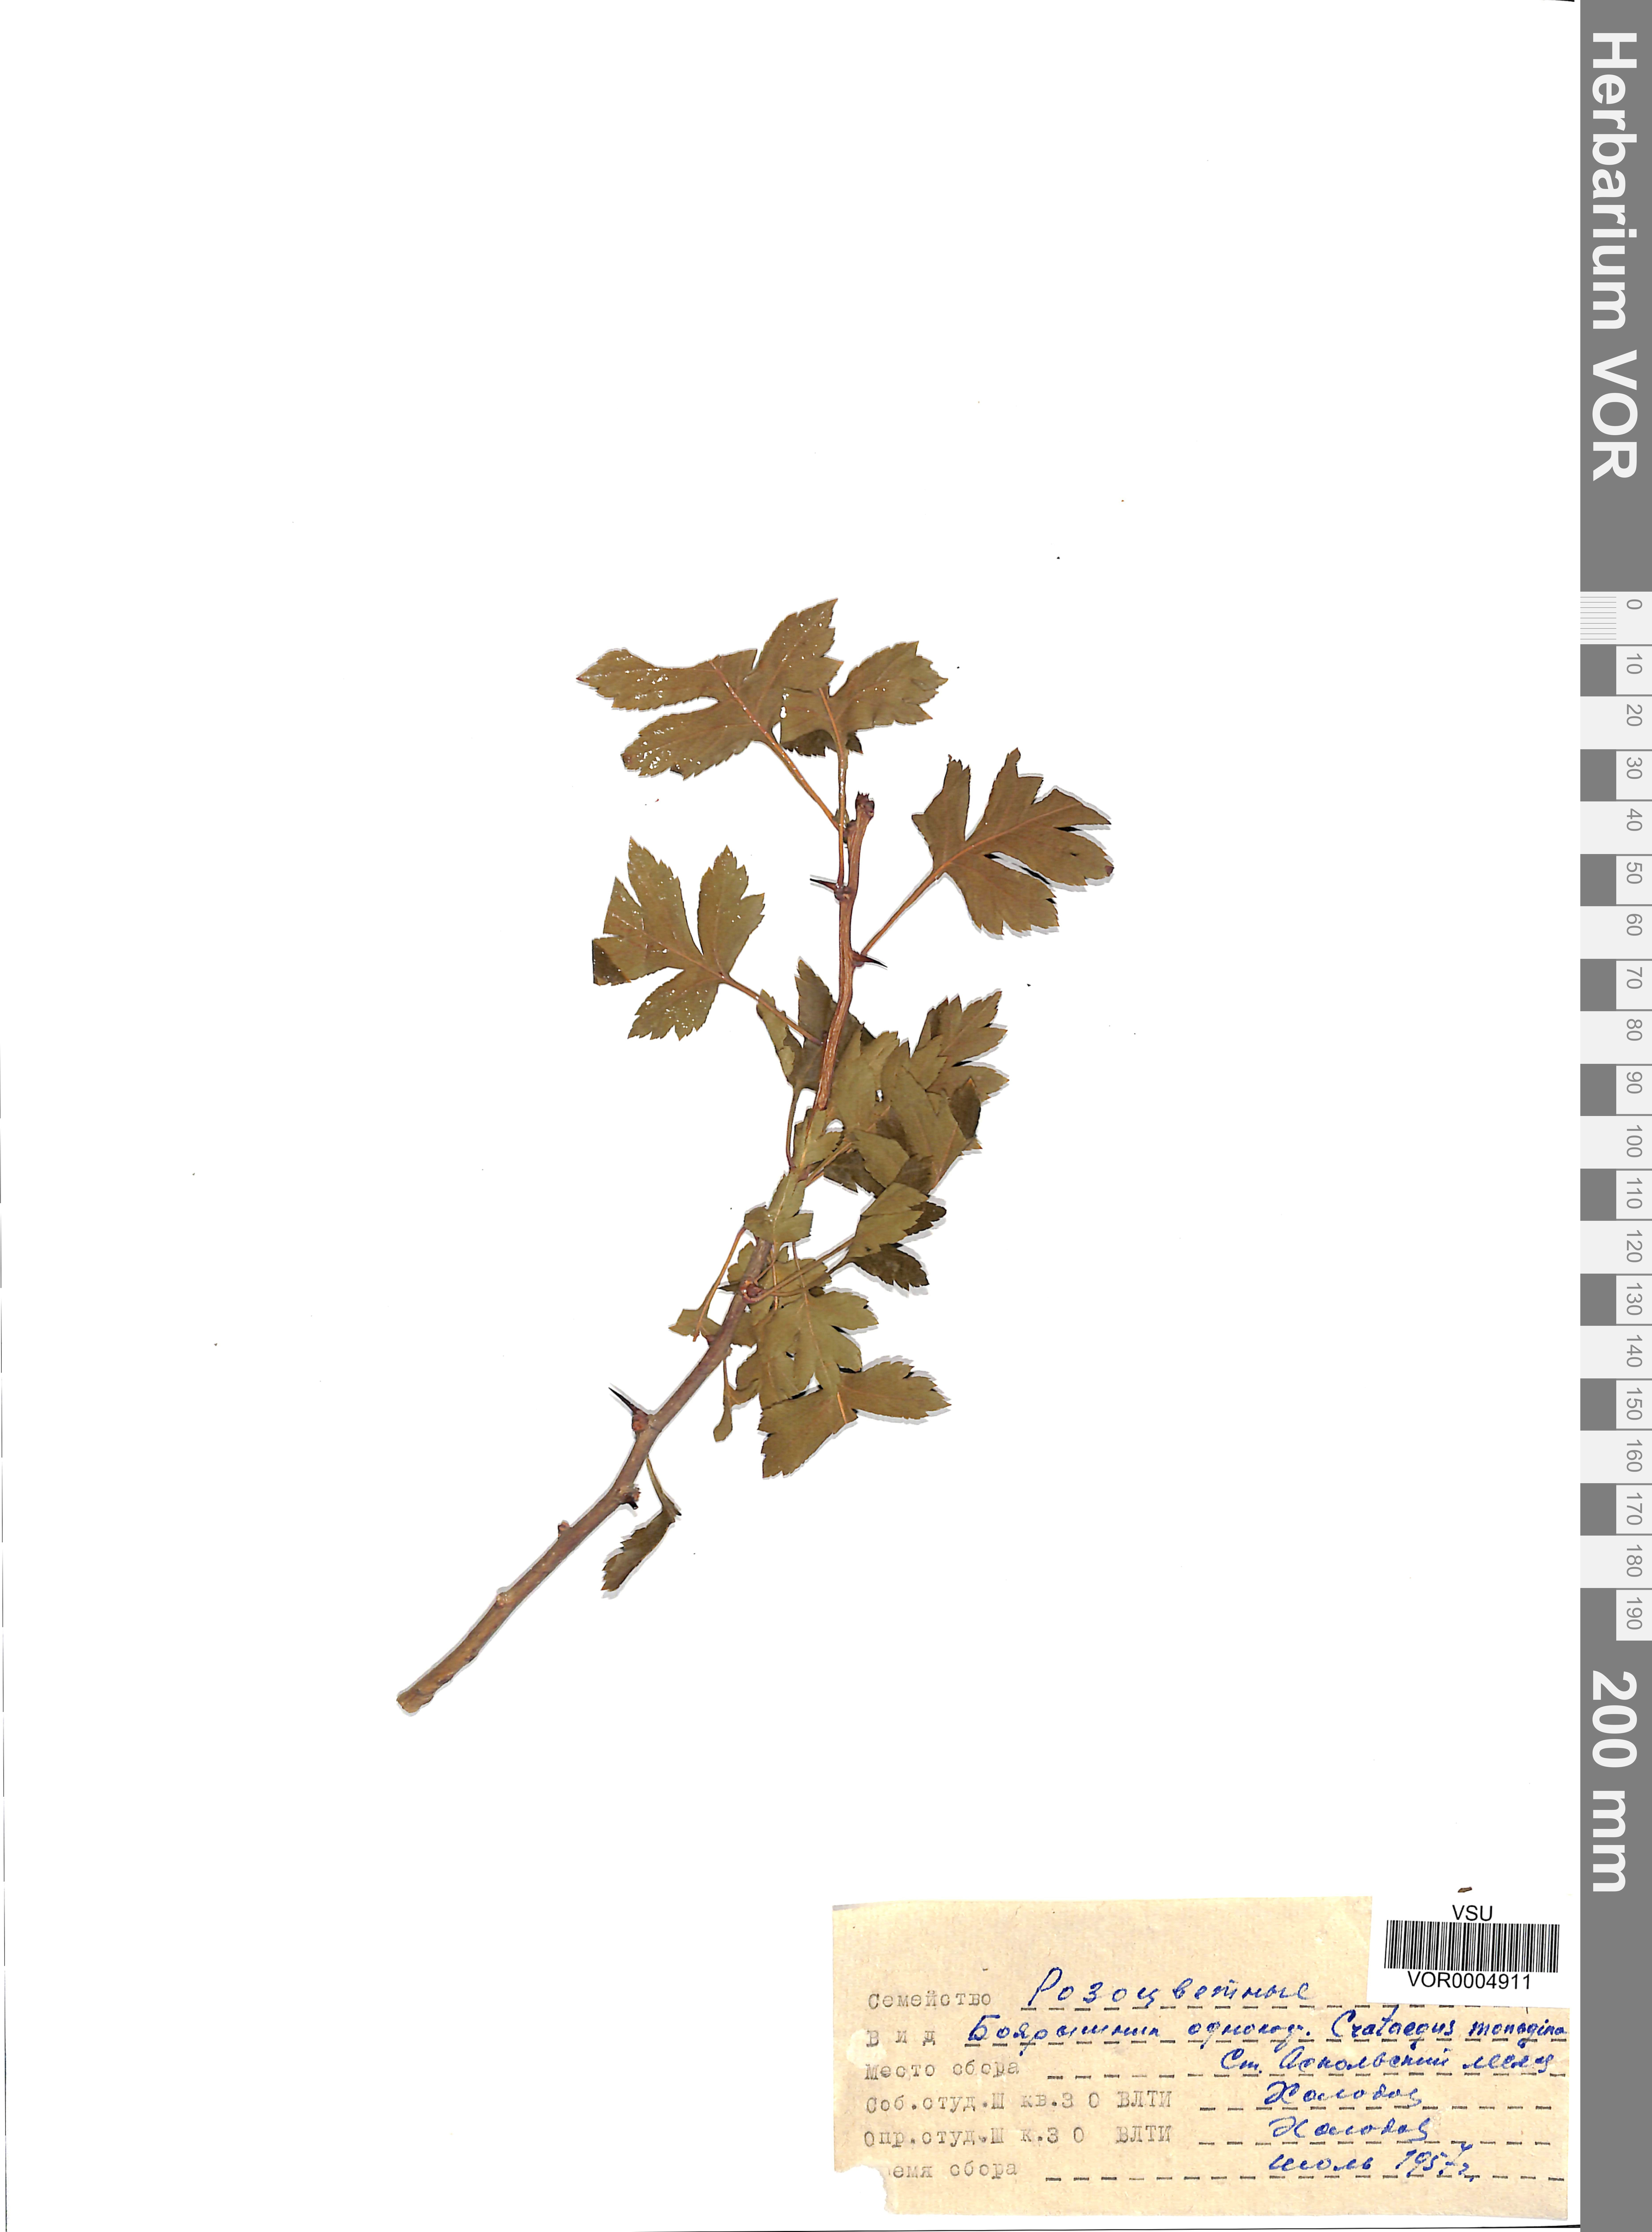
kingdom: Plantae
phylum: Tracheophyta
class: Magnoliopsida
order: Rosales
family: Rosaceae
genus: Crataegus
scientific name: Crataegus monogyna
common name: Hawthorn
